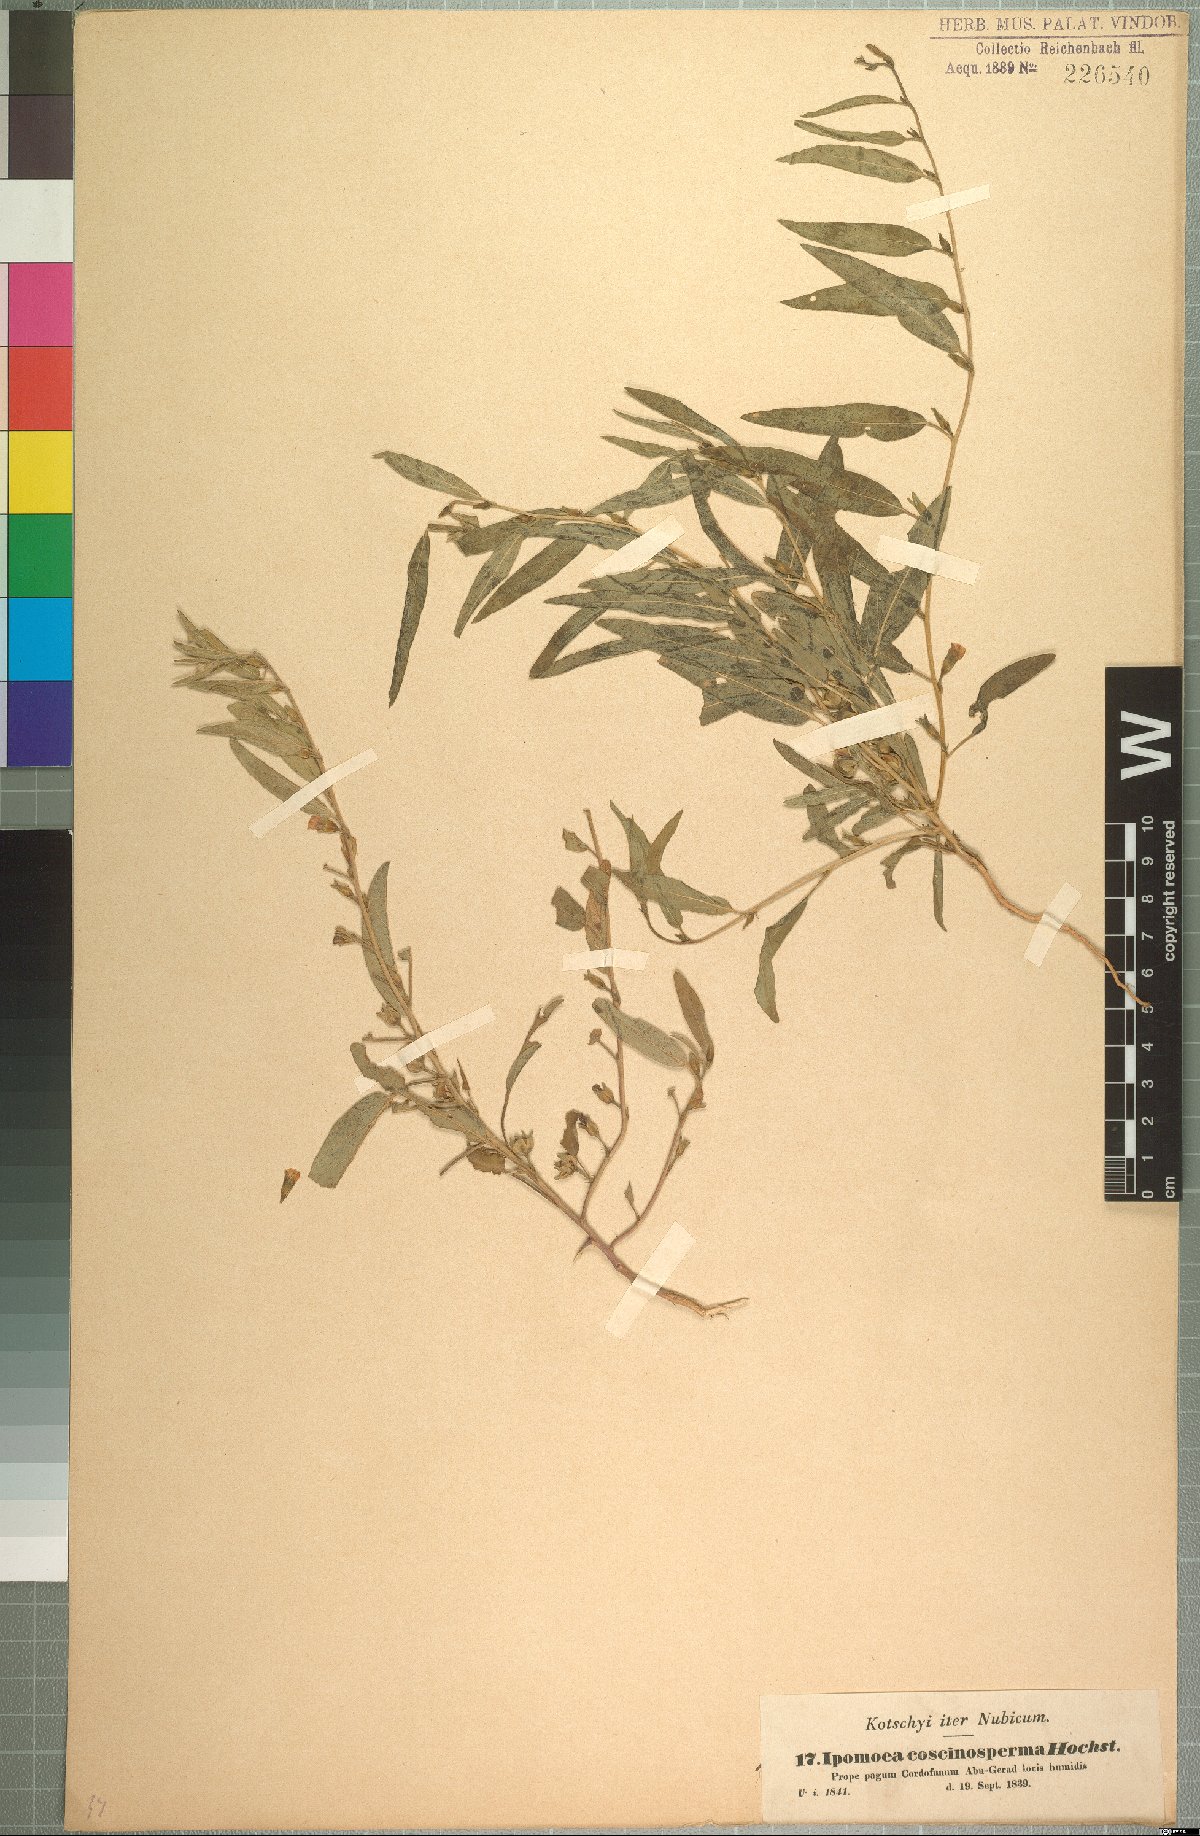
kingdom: Plantae
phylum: Tracheophyta
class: Magnoliopsida
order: Solanales
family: Convolvulaceae
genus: Ipomoea
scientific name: Ipomoea coscinosperma
